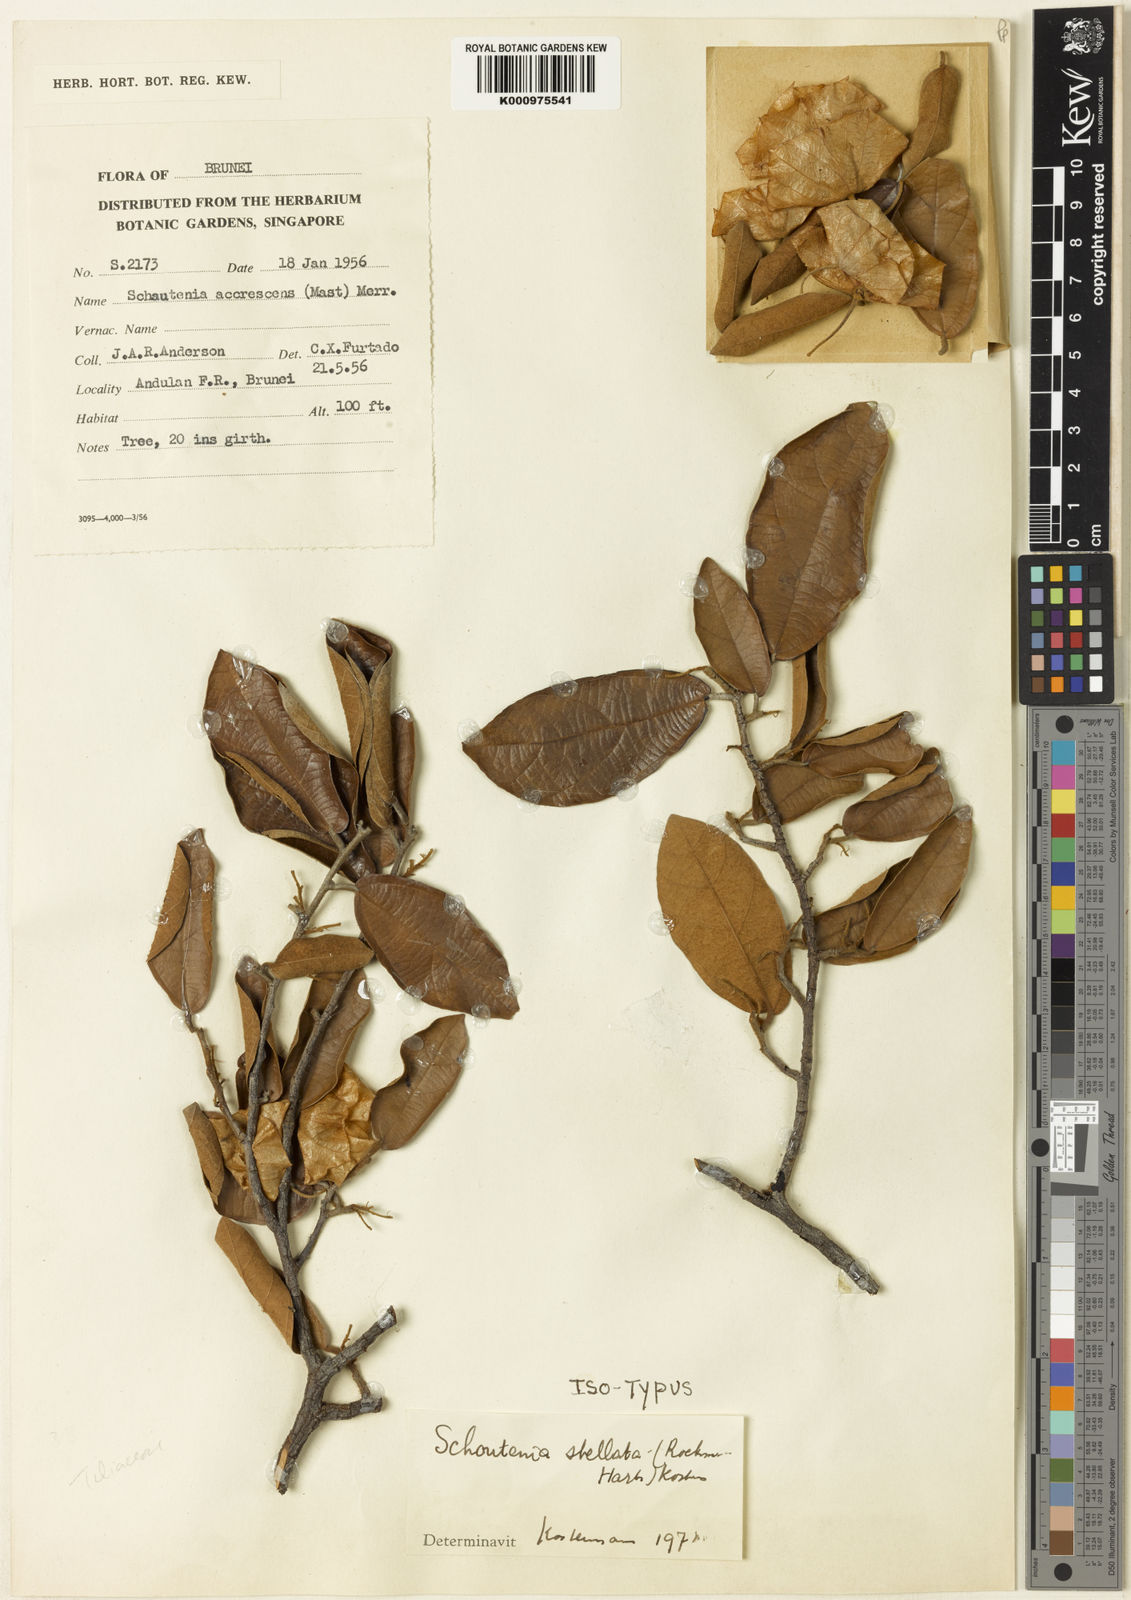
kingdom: Plantae
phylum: Tracheophyta
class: Magnoliopsida
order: Malvales
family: Malvaceae
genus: Schoutenia
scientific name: Schoutenia
